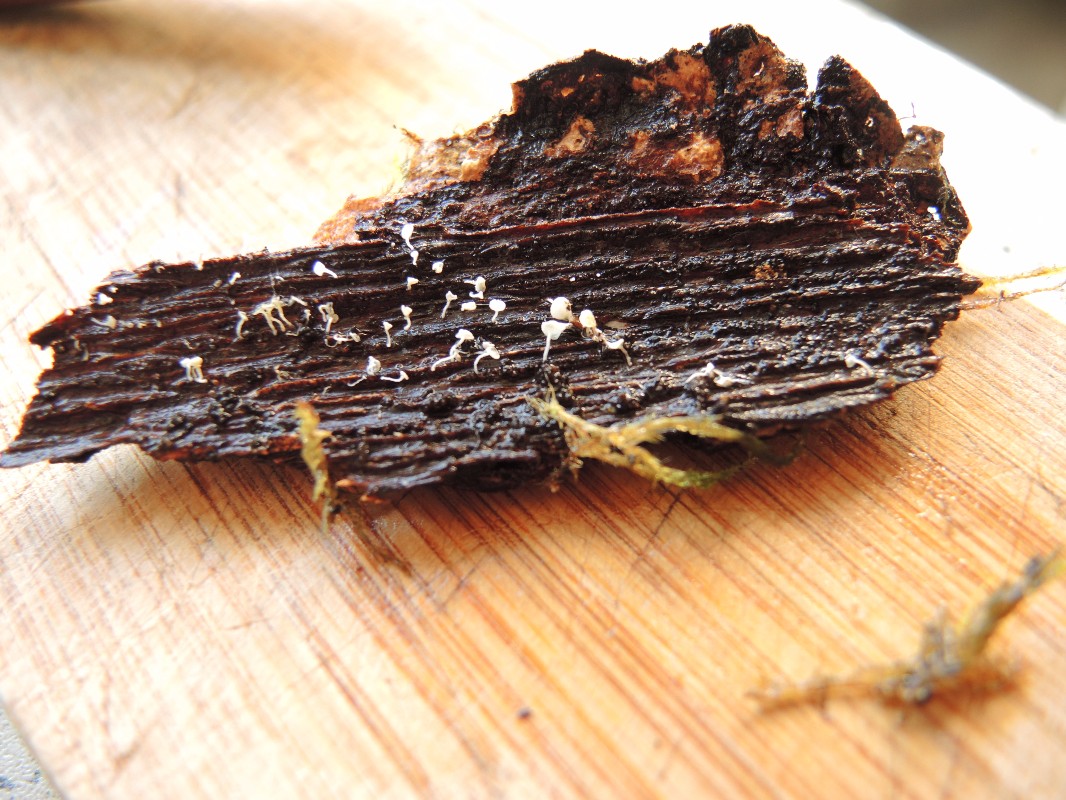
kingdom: Fungi
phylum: Ascomycota
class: Leotiomycetes
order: Helotiales
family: Lachnaceae
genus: Lachnum
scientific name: Lachnum virgineum
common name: jomfru-frynseskive
